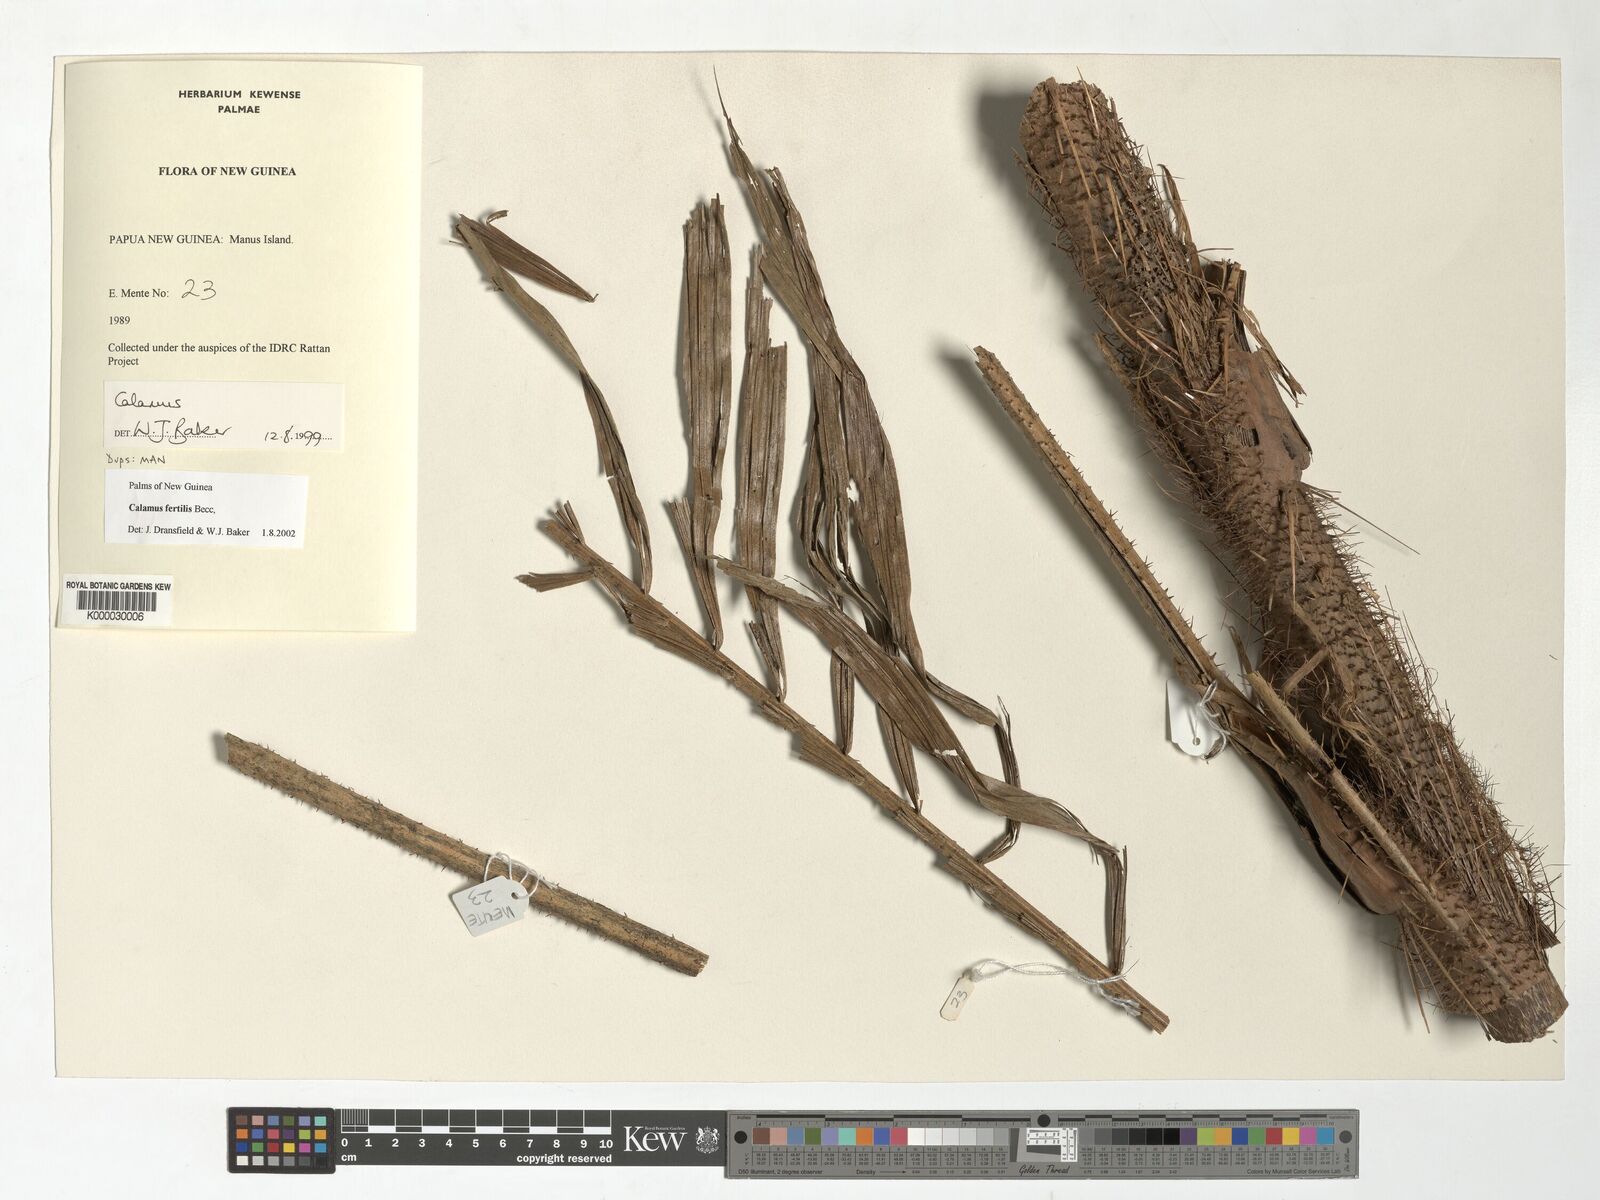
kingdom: Plantae
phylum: Tracheophyta
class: Liliopsida
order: Arecales
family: Arecaceae
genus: Calamus
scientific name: Calamus fertilis
